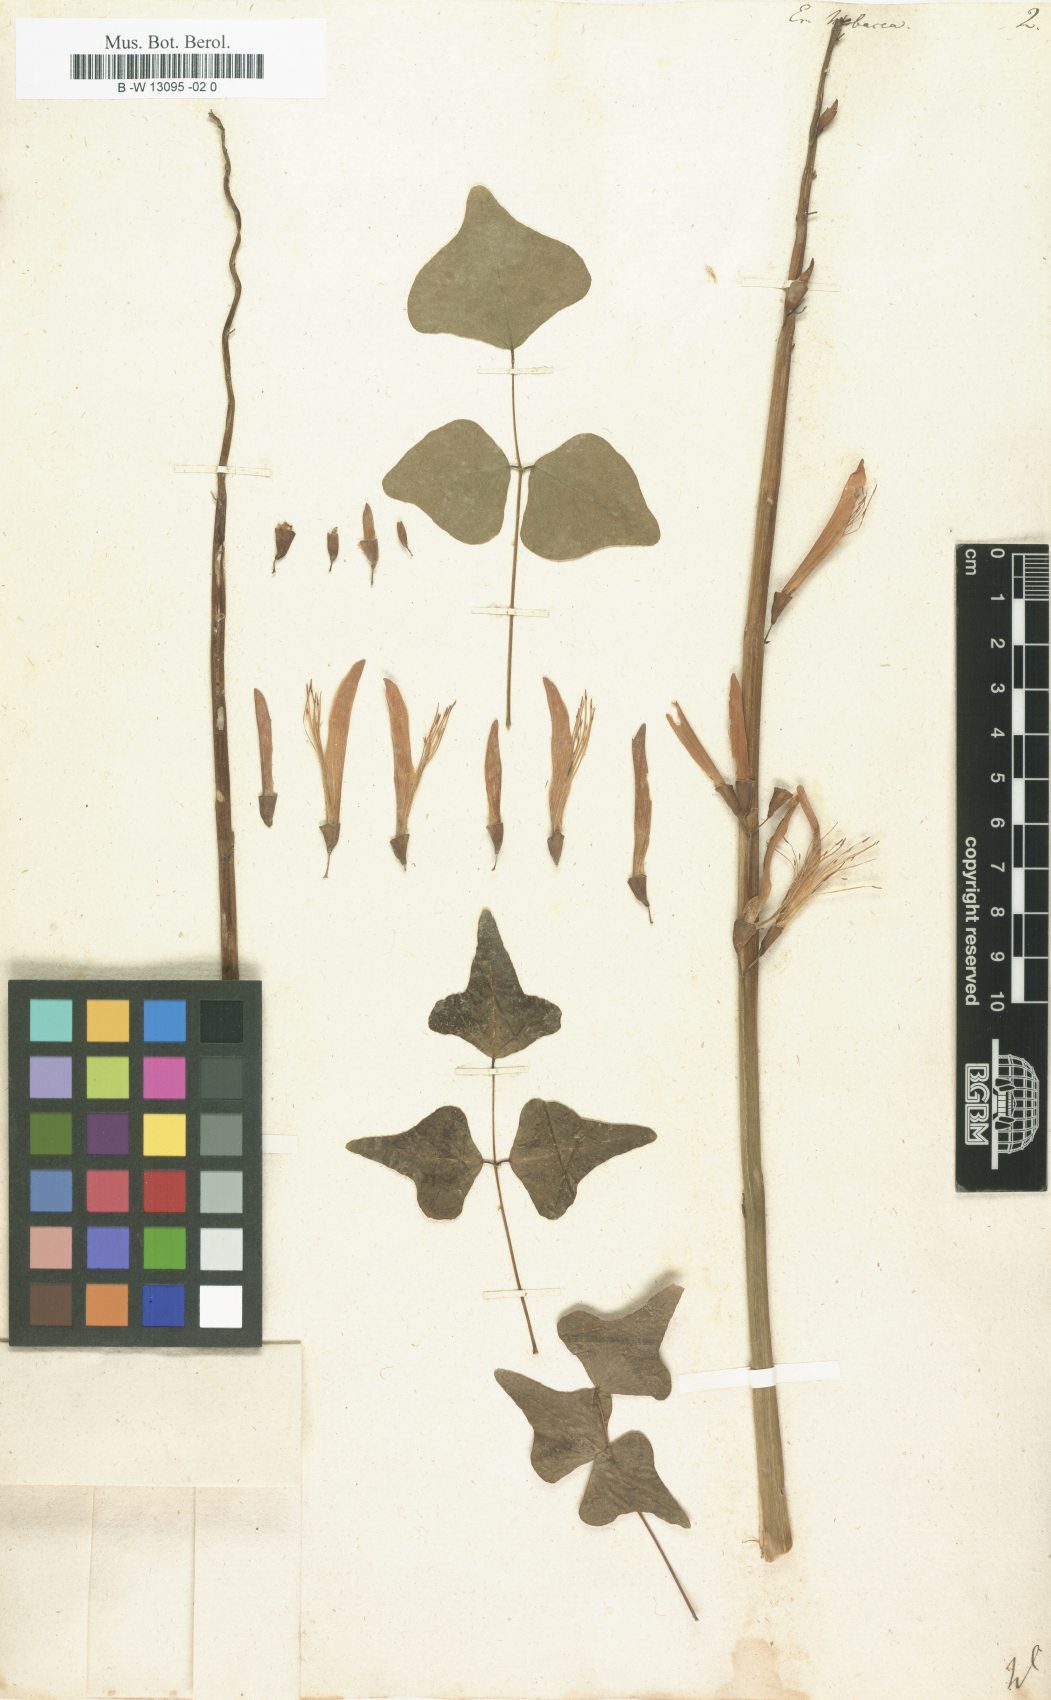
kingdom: Plantae
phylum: Tracheophyta
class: Magnoliopsida
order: Fabales
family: Fabaceae
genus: Erythrina
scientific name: Erythrina herbacea
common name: Coral-bean
